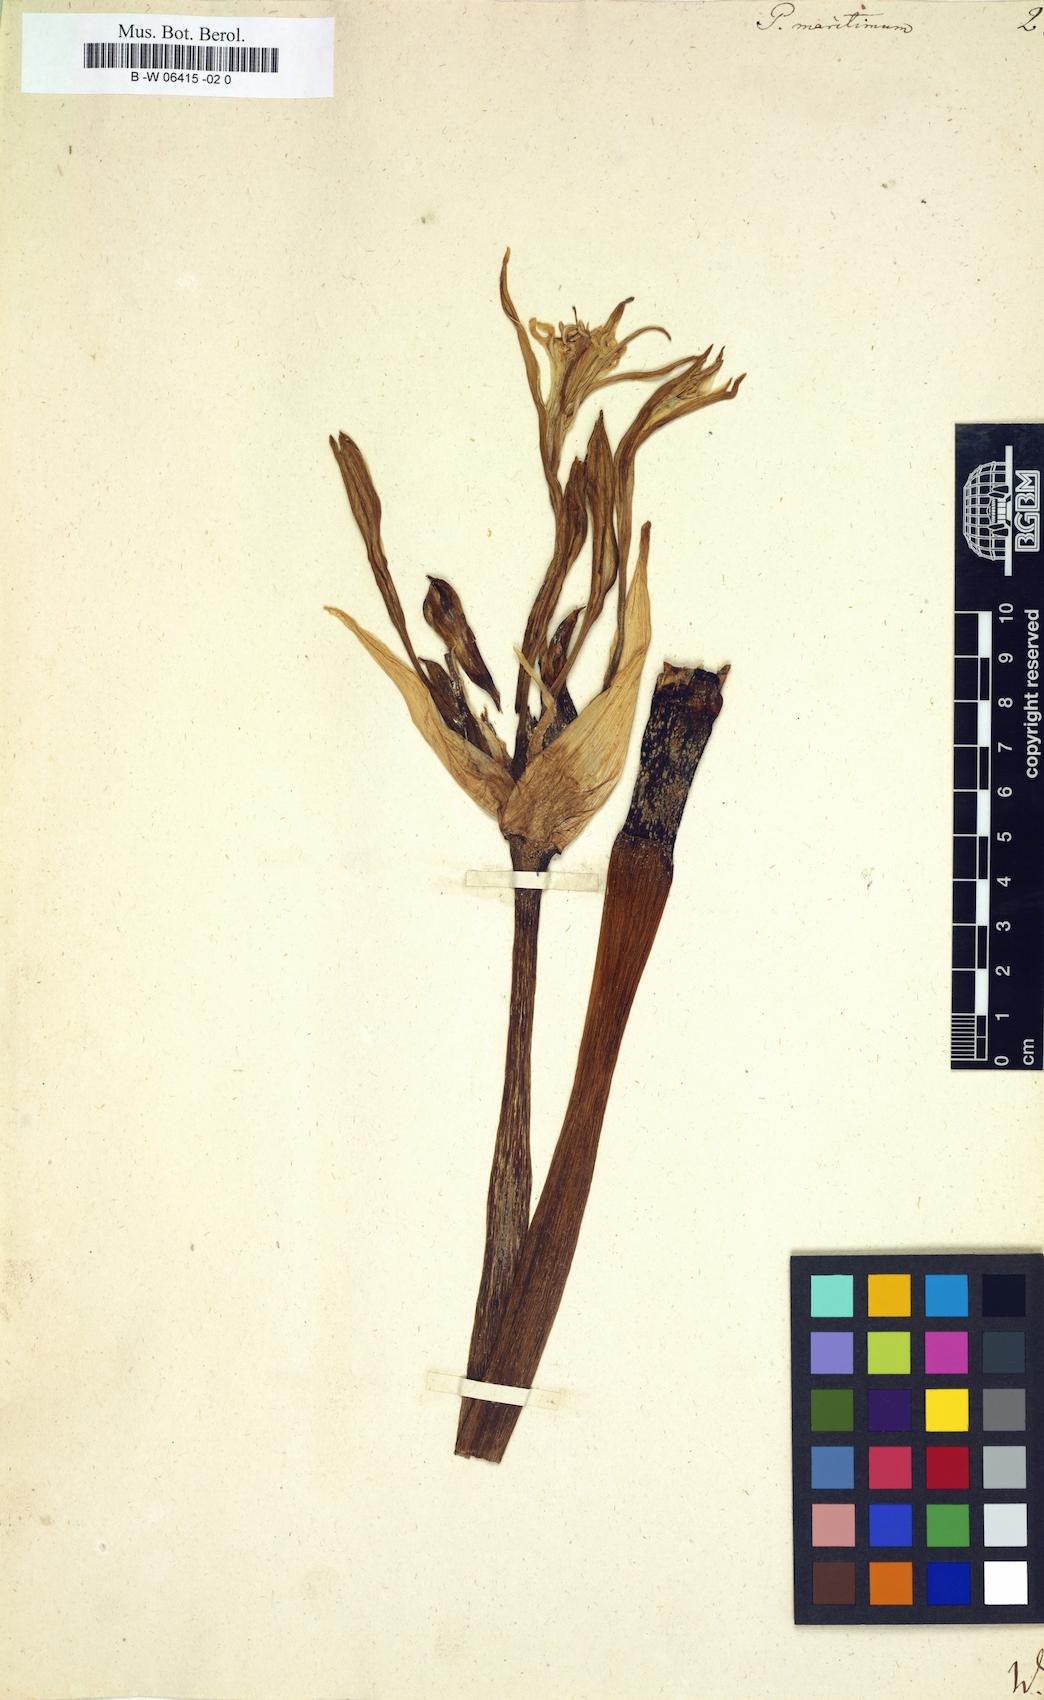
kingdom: Plantae
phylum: Tracheophyta
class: Liliopsida
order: Asparagales
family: Amaryllidaceae
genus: Pancratium
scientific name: Pancratium maritimum
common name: Sea-daffodil
